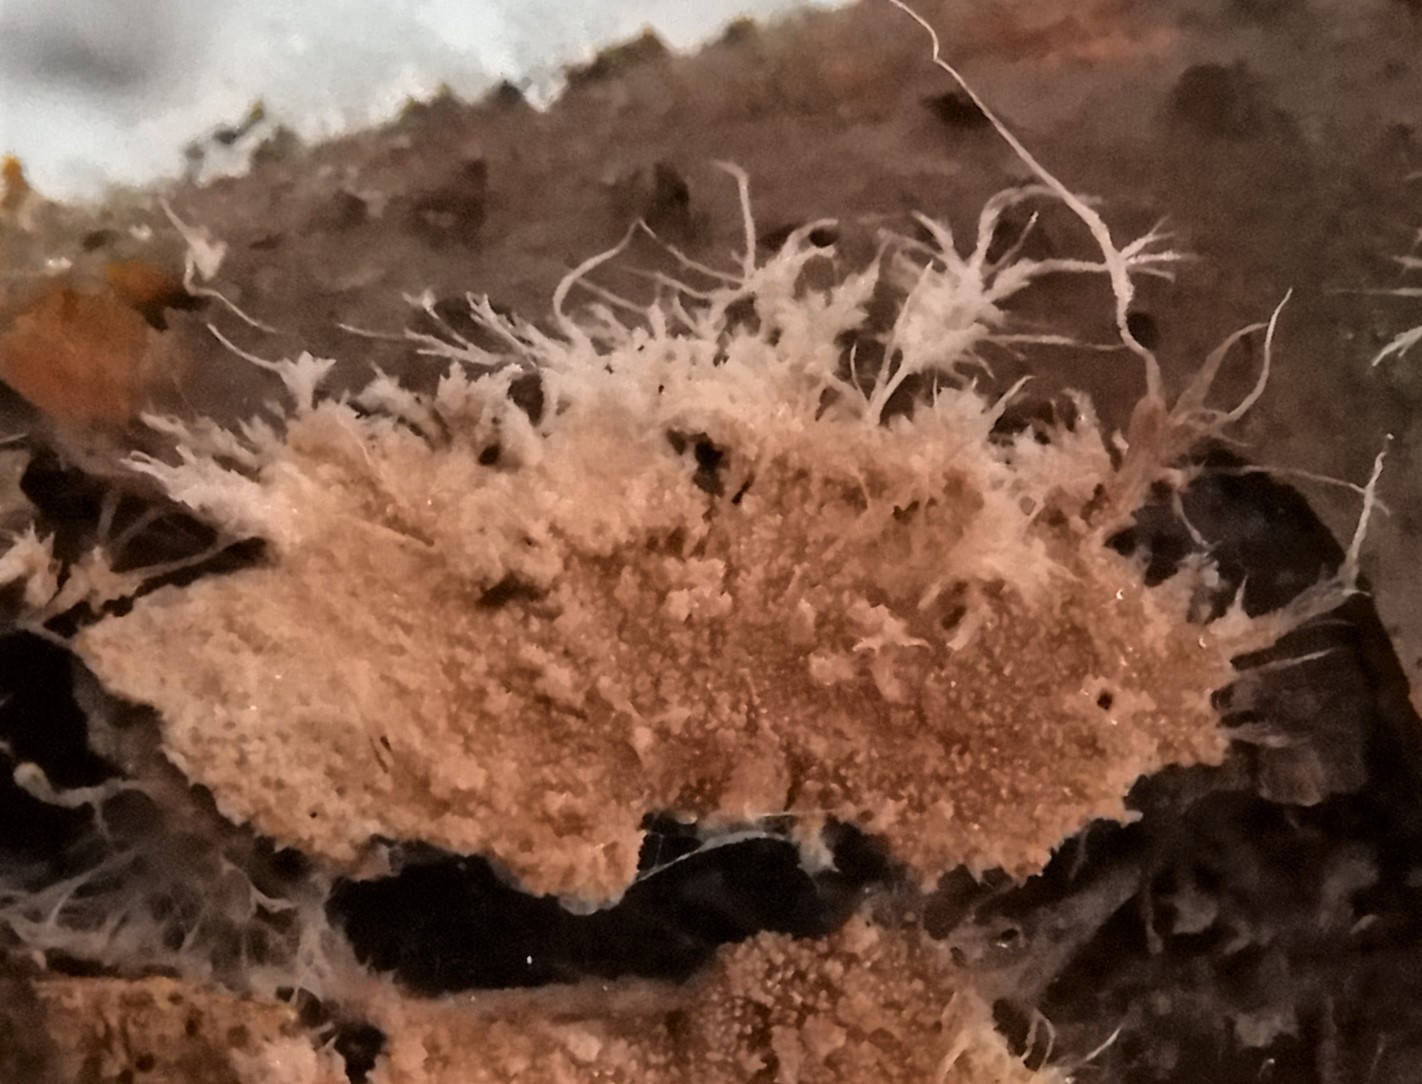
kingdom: Fungi
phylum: Basidiomycota
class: Agaricomycetes
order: Polyporales
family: Steccherinaceae
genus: Steccherinum
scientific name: Steccherinum fimbriatum
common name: trådet skønpig
